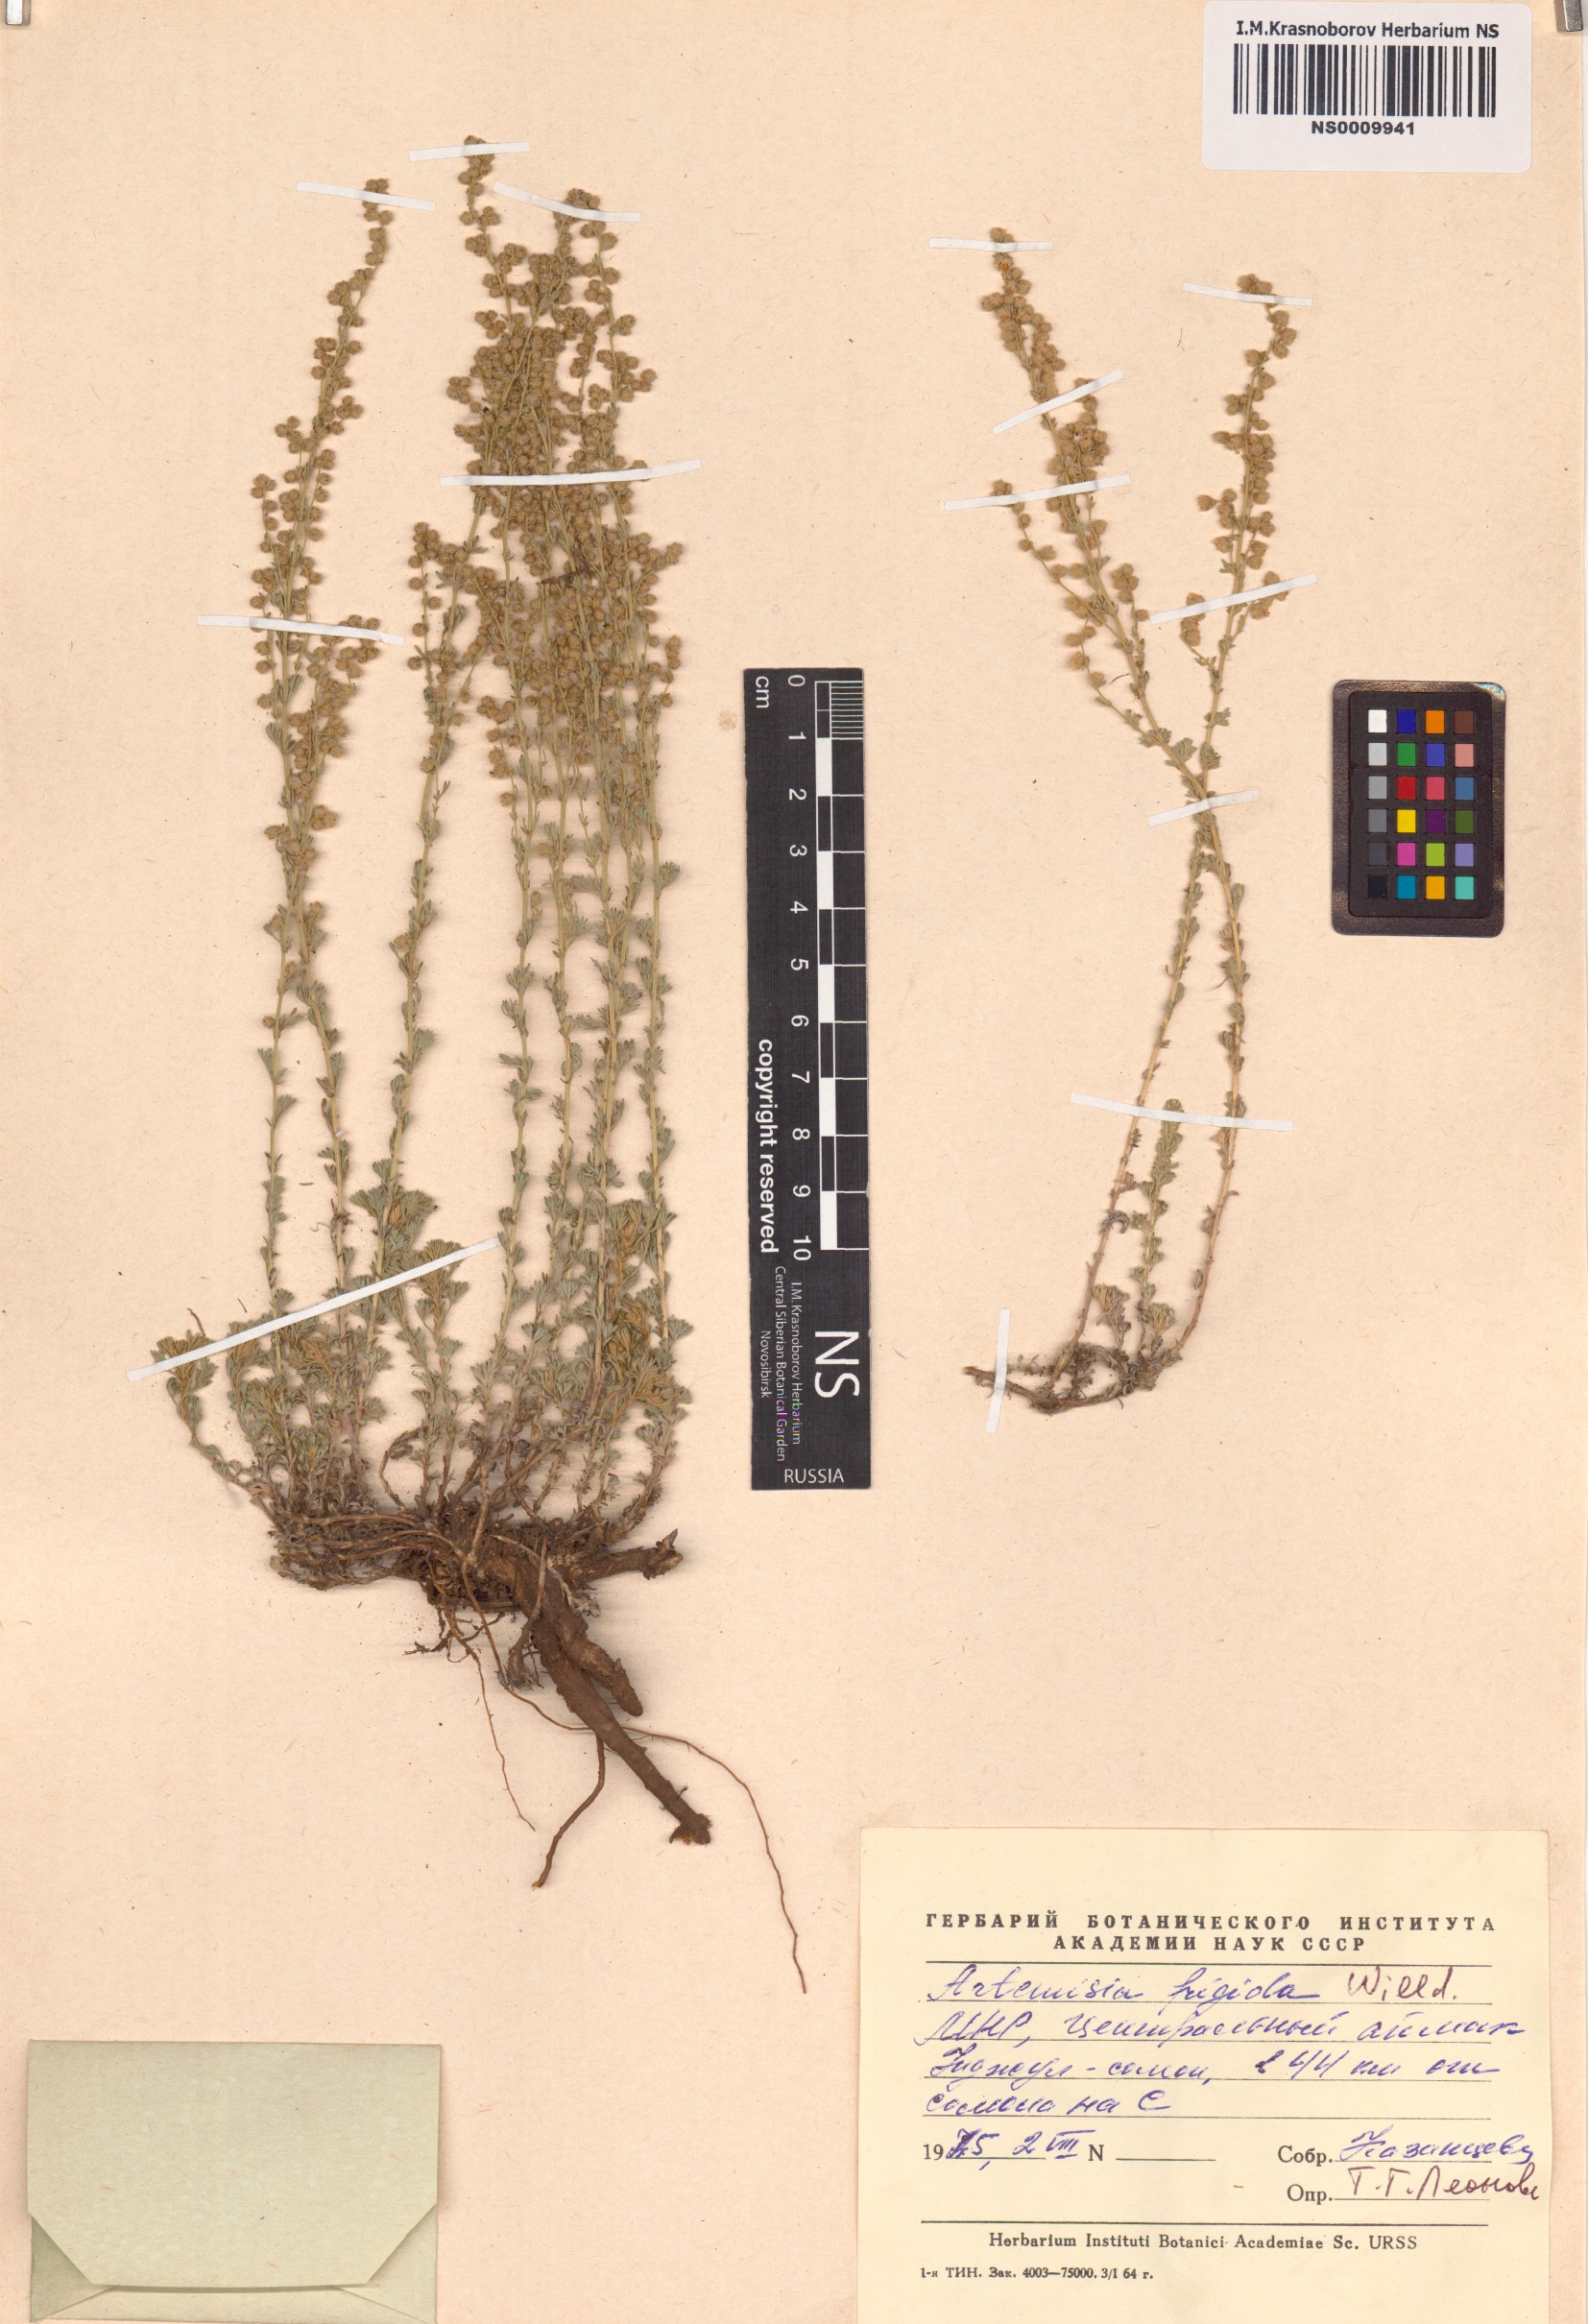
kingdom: Plantae
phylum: Tracheophyta
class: Magnoliopsida
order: Asterales
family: Asteraceae
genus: Artemisia
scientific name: Artemisia frigida
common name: Prairie sagewort
